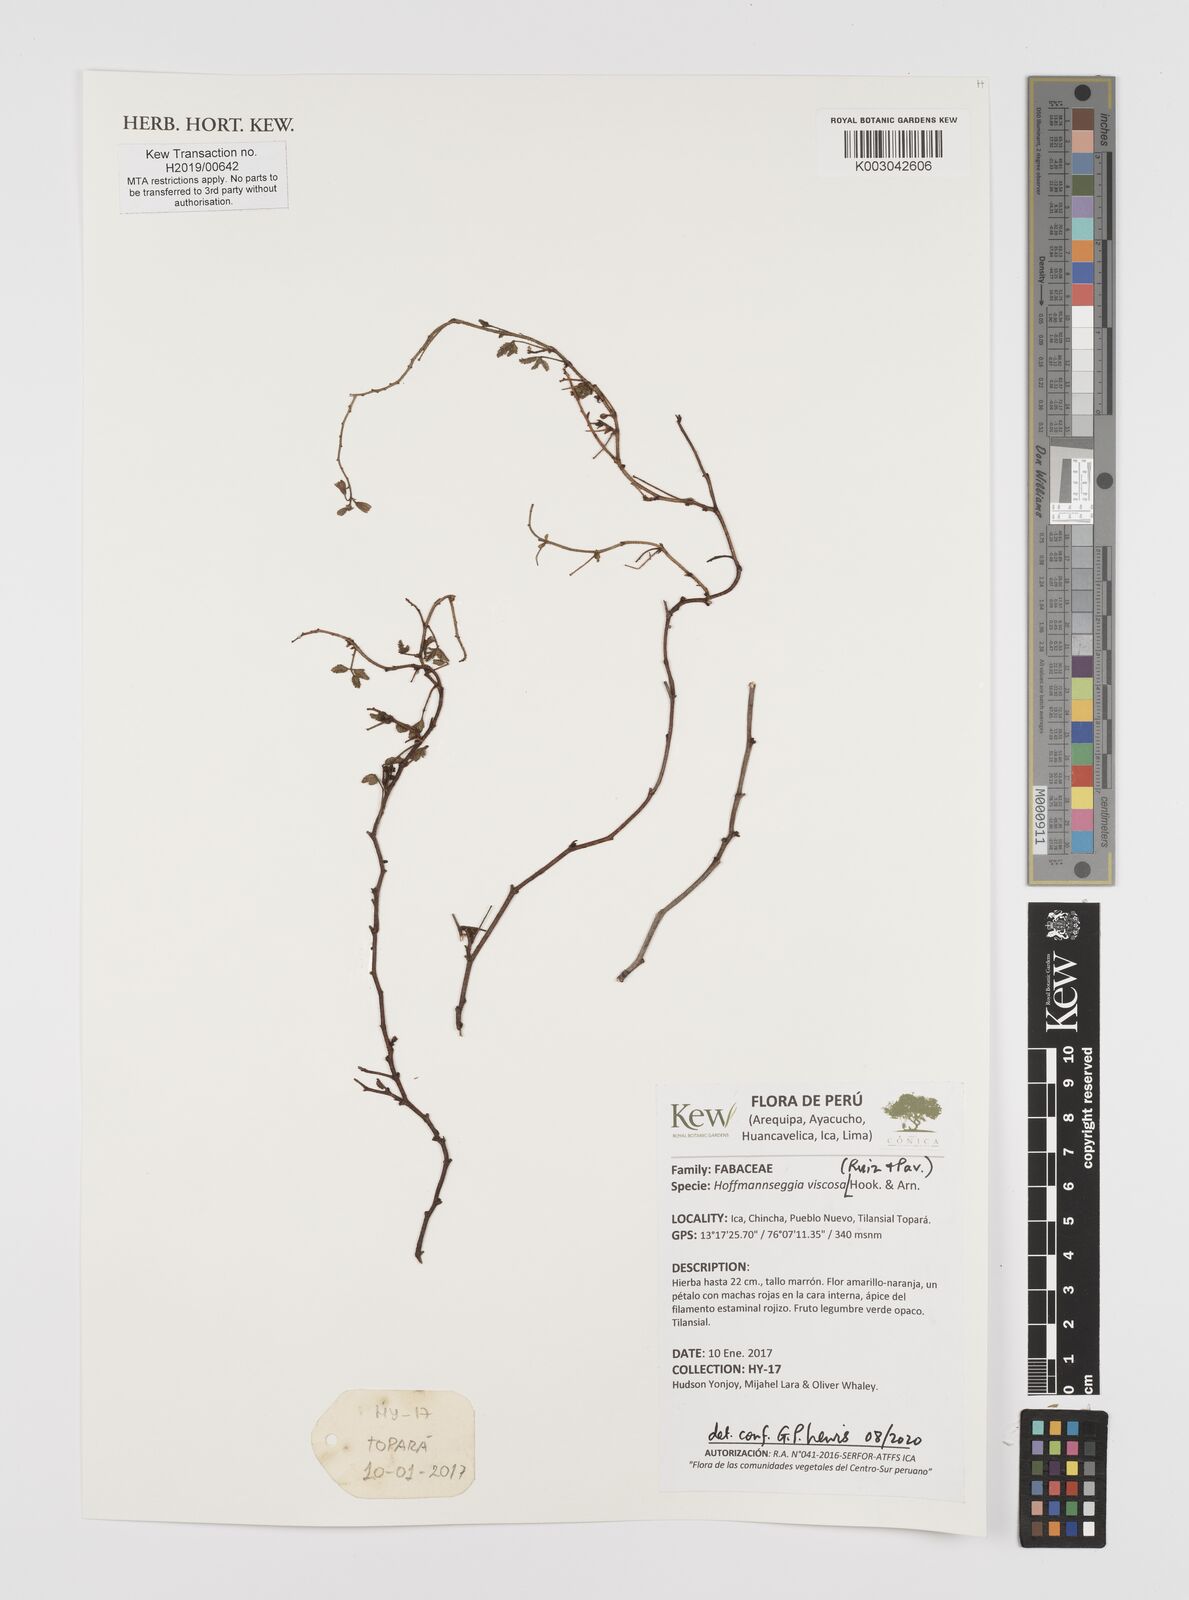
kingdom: Plantae
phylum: Tracheophyta
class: Magnoliopsida
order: Fabales
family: Fabaceae
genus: Hoffmannseggia
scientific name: Hoffmannseggia viscosa
